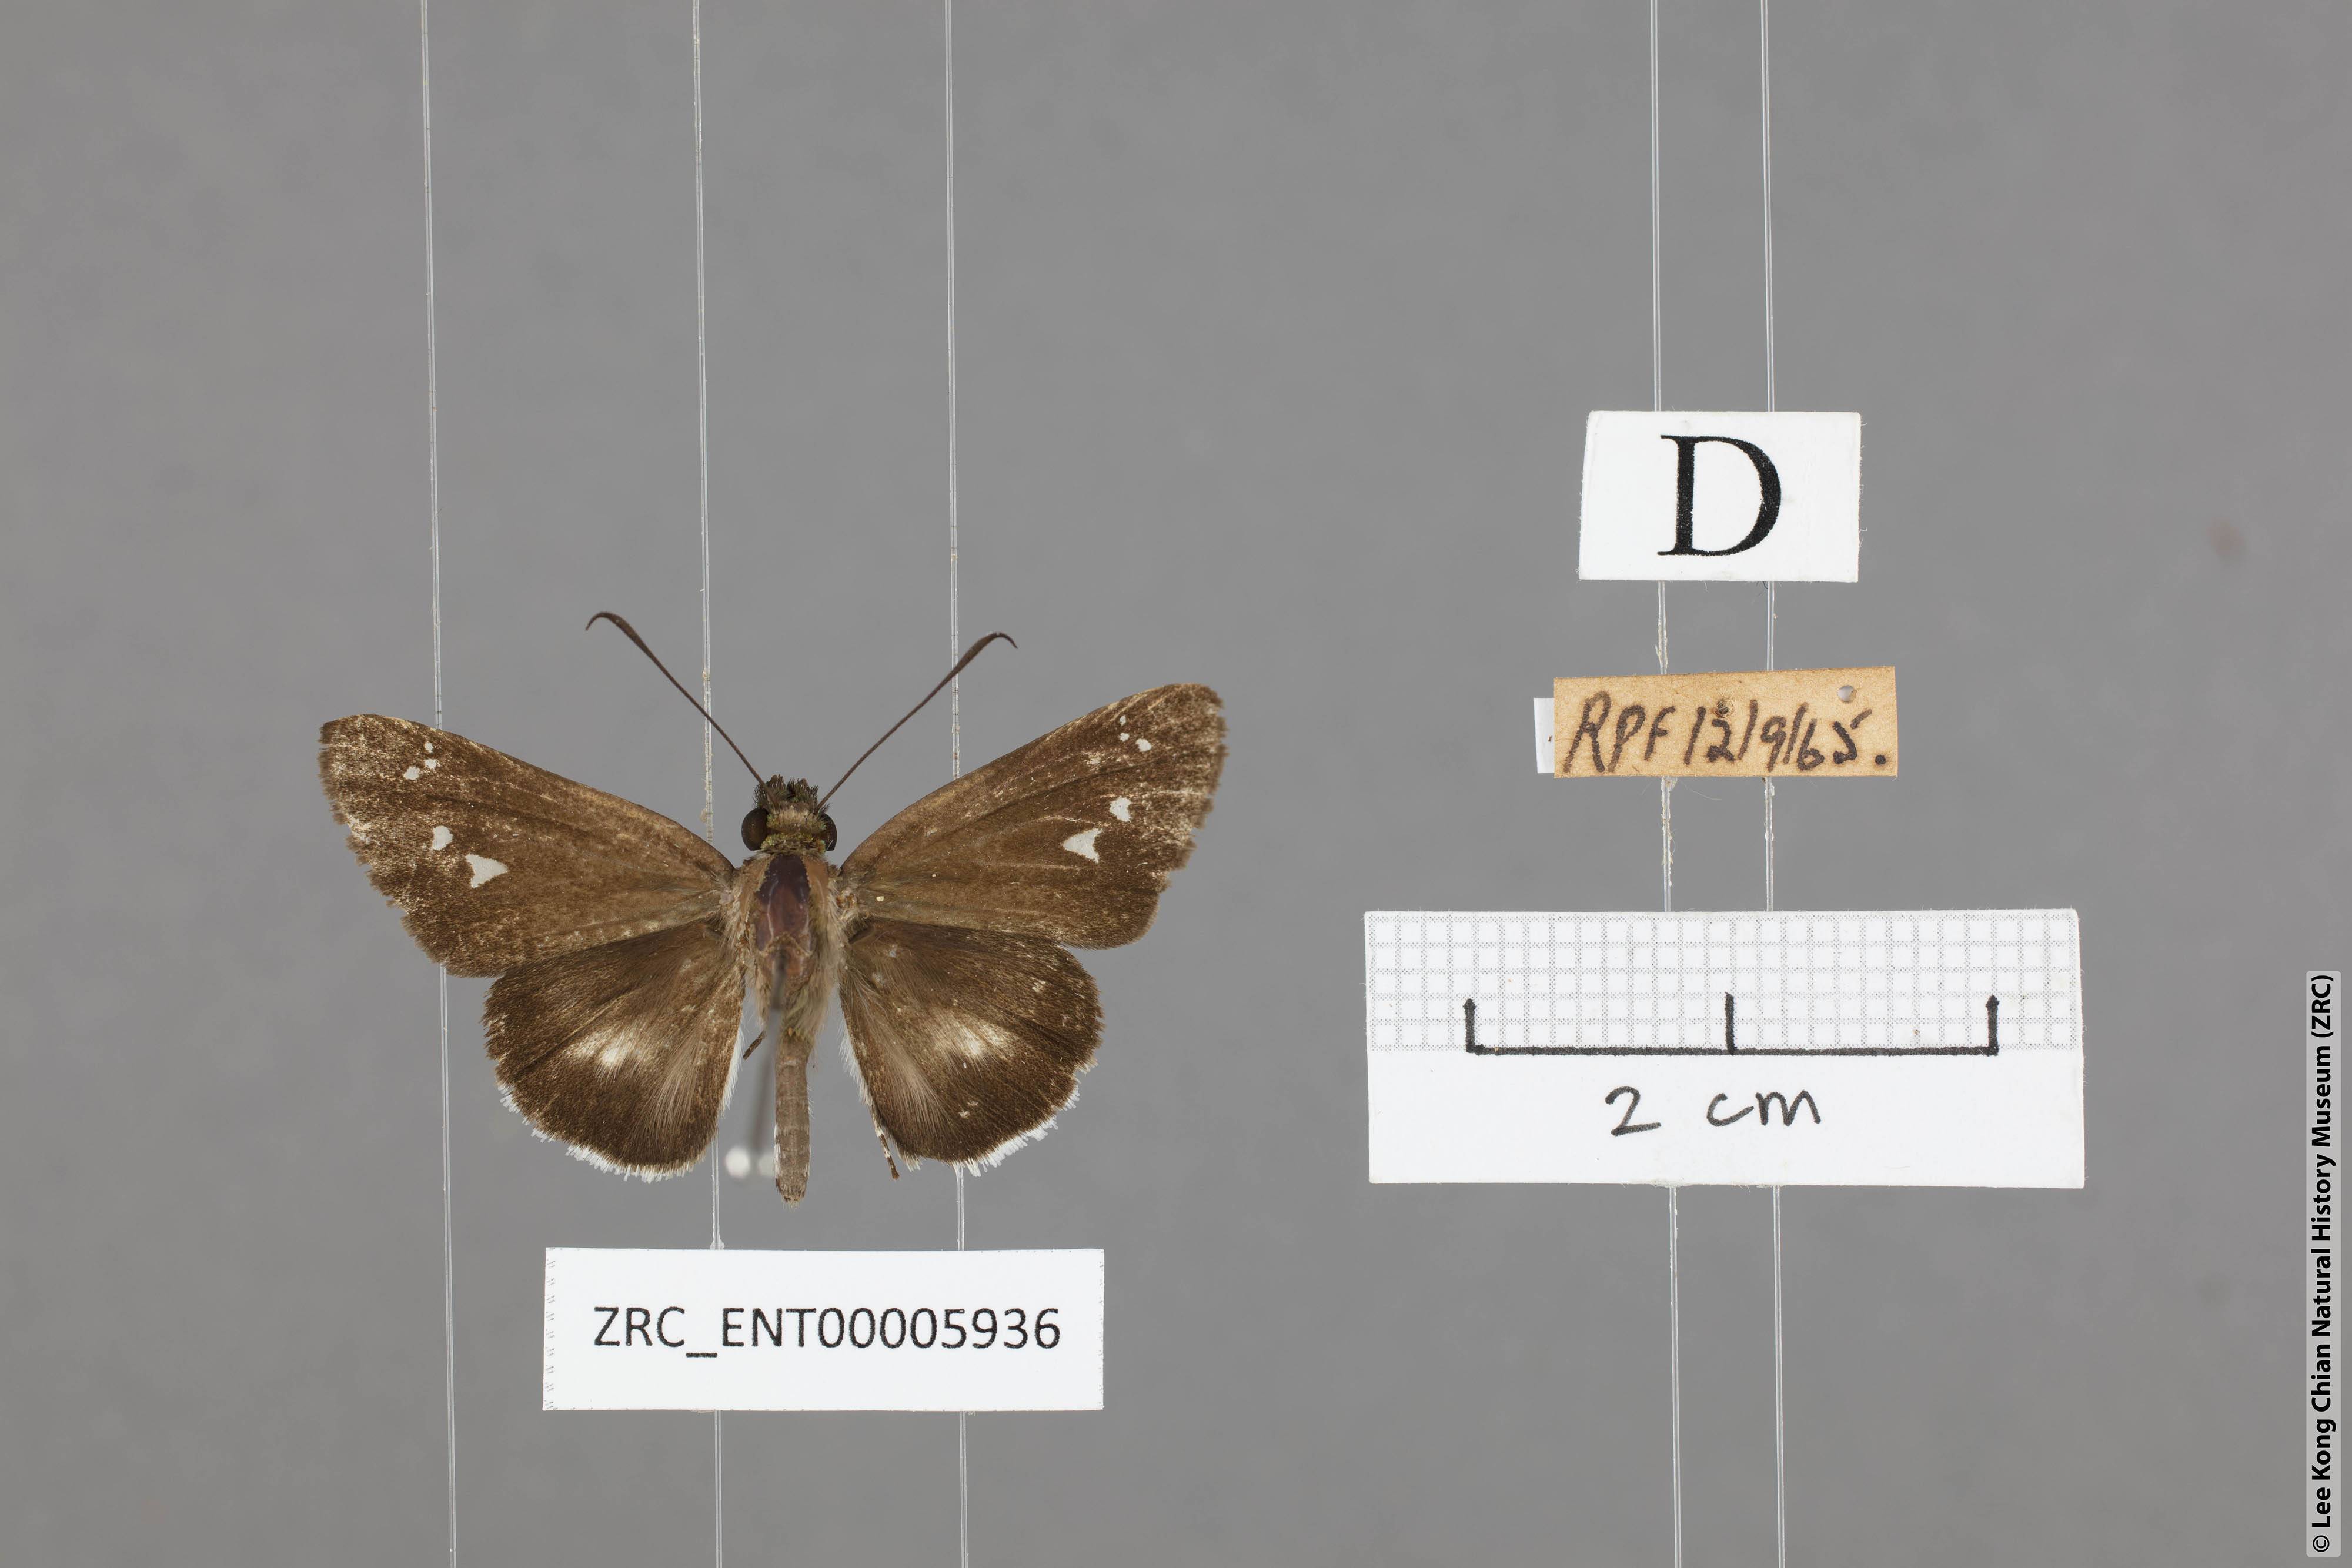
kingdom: Animalia
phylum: Arthropoda
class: Insecta
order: Lepidoptera
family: Hesperiidae
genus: Acerbas
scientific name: Acerbas anthea
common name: White palmer
